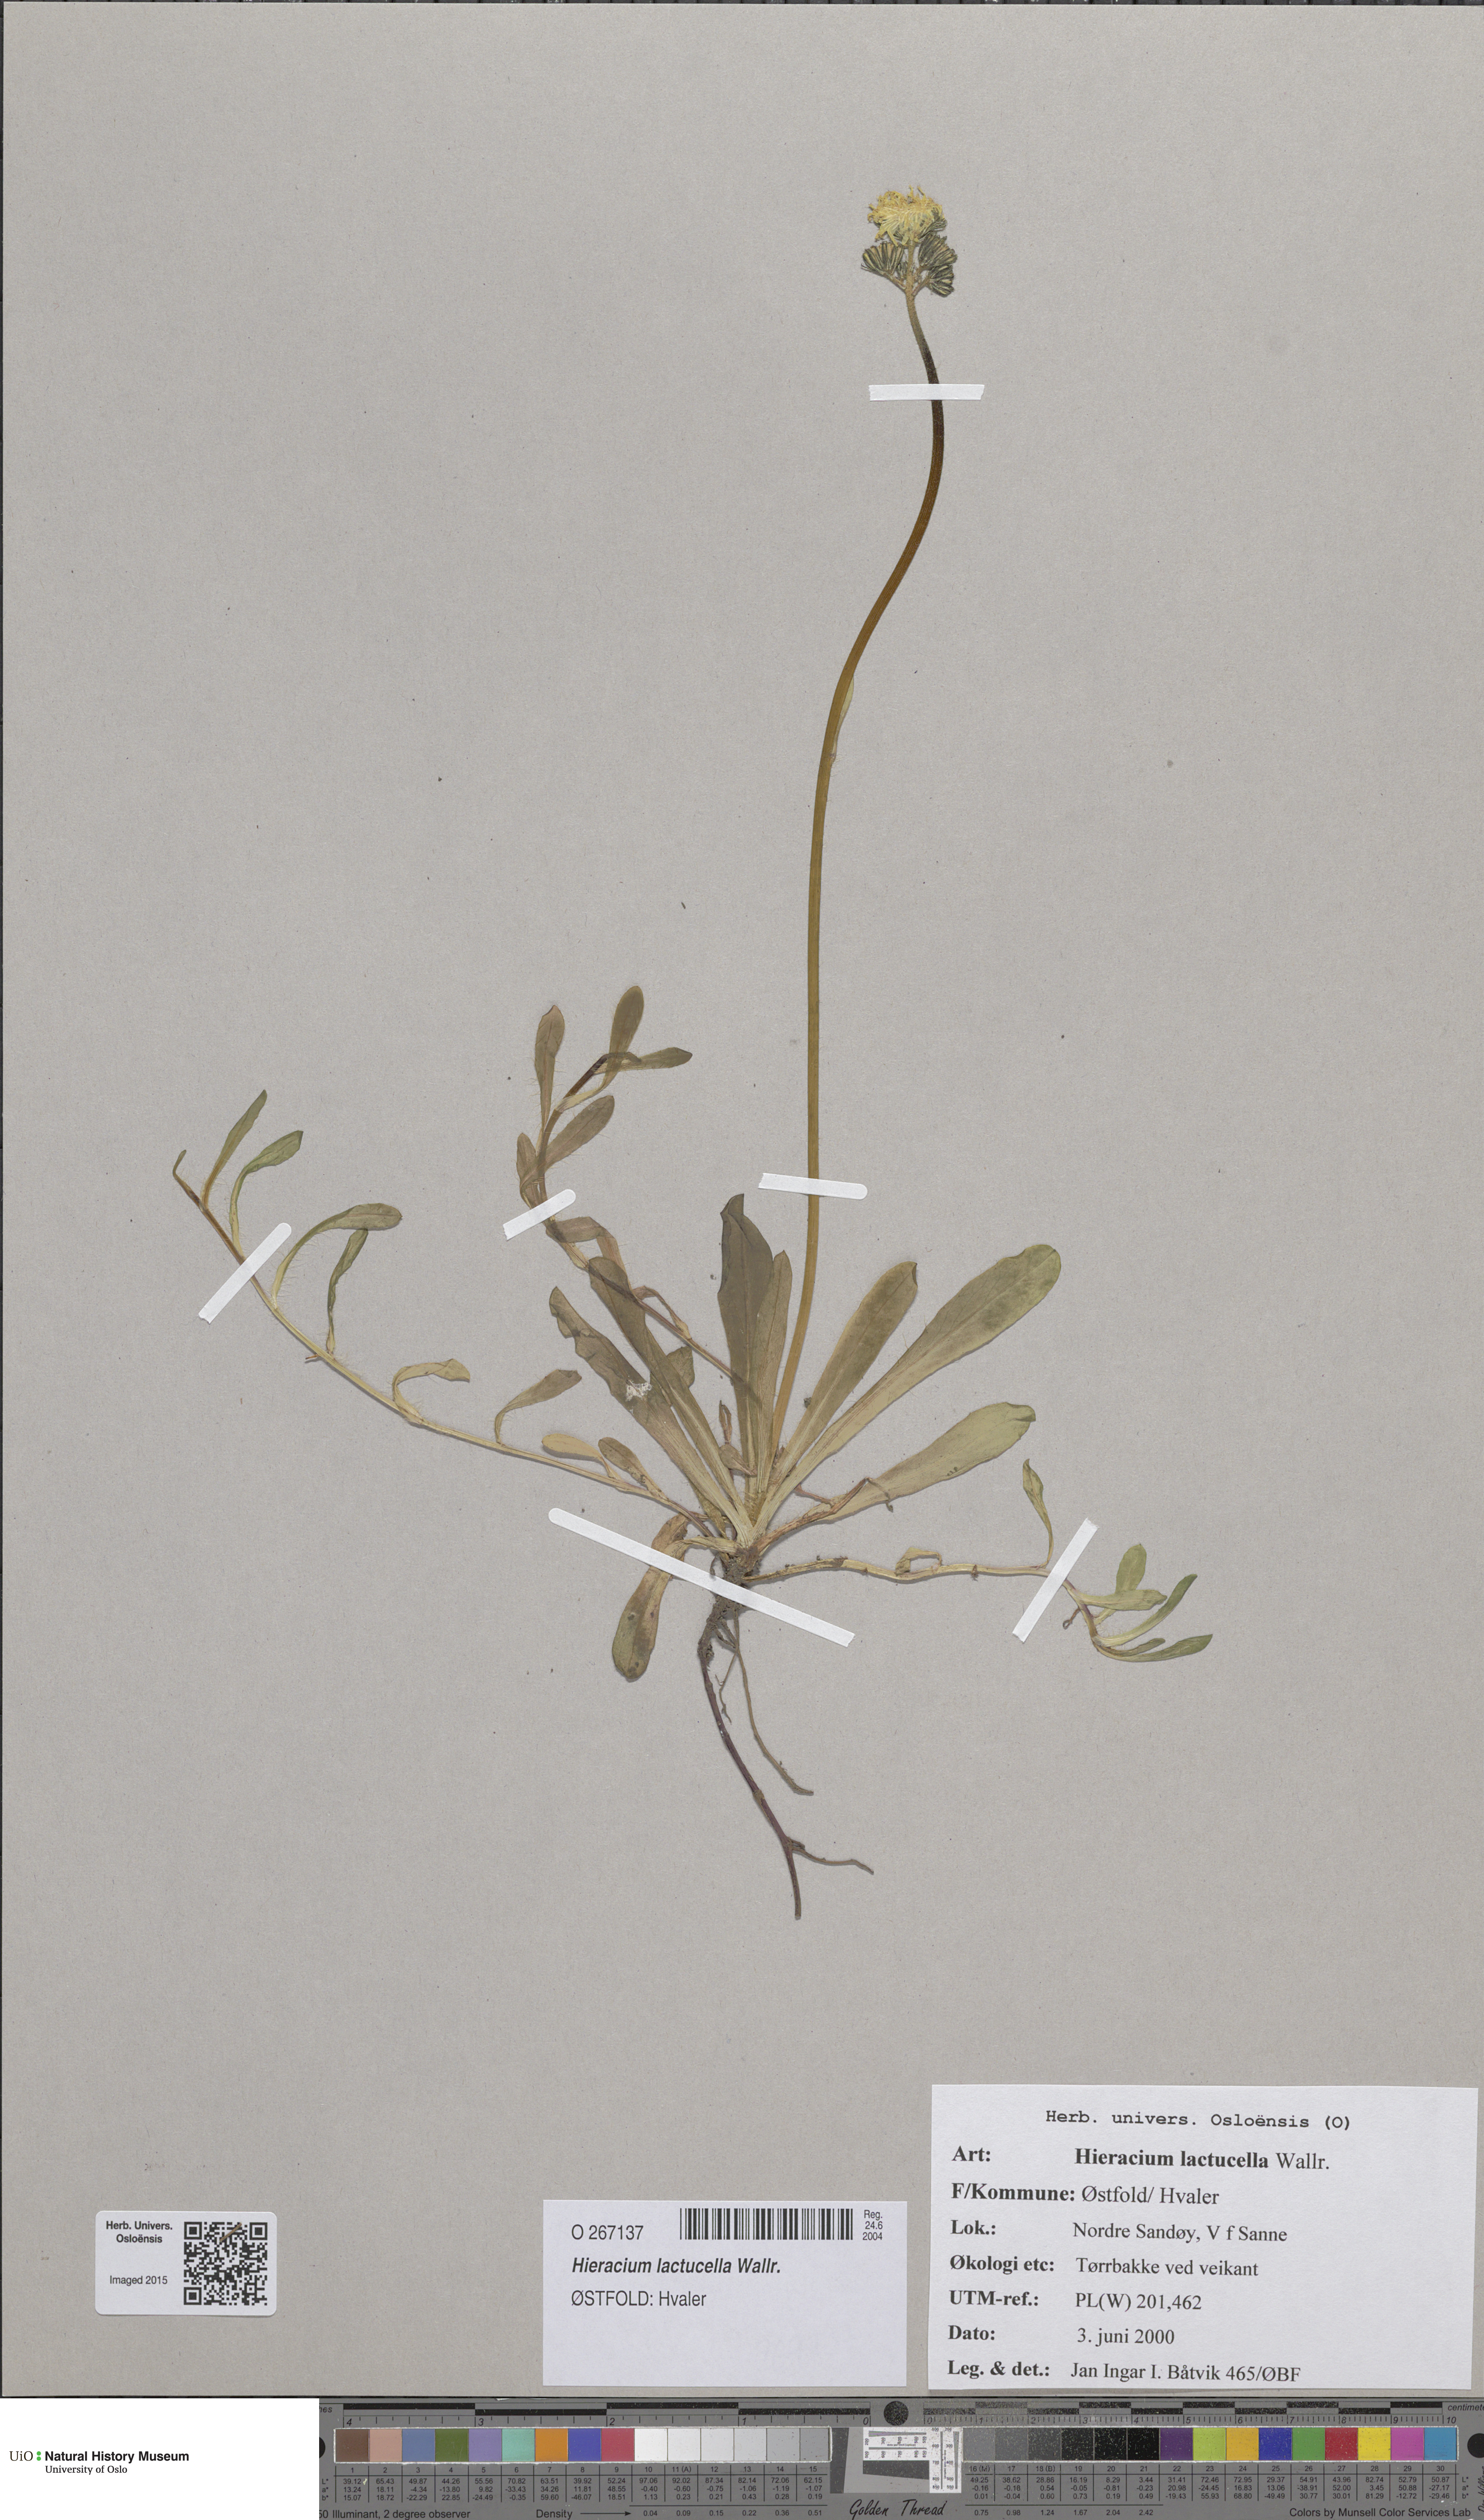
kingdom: Plantae
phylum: Tracheophyta
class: Magnoliopsida
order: Asterales
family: Asteraceae
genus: Pilosella
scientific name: Pilosella lactucella
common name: Glaucous fox-and-cubs
